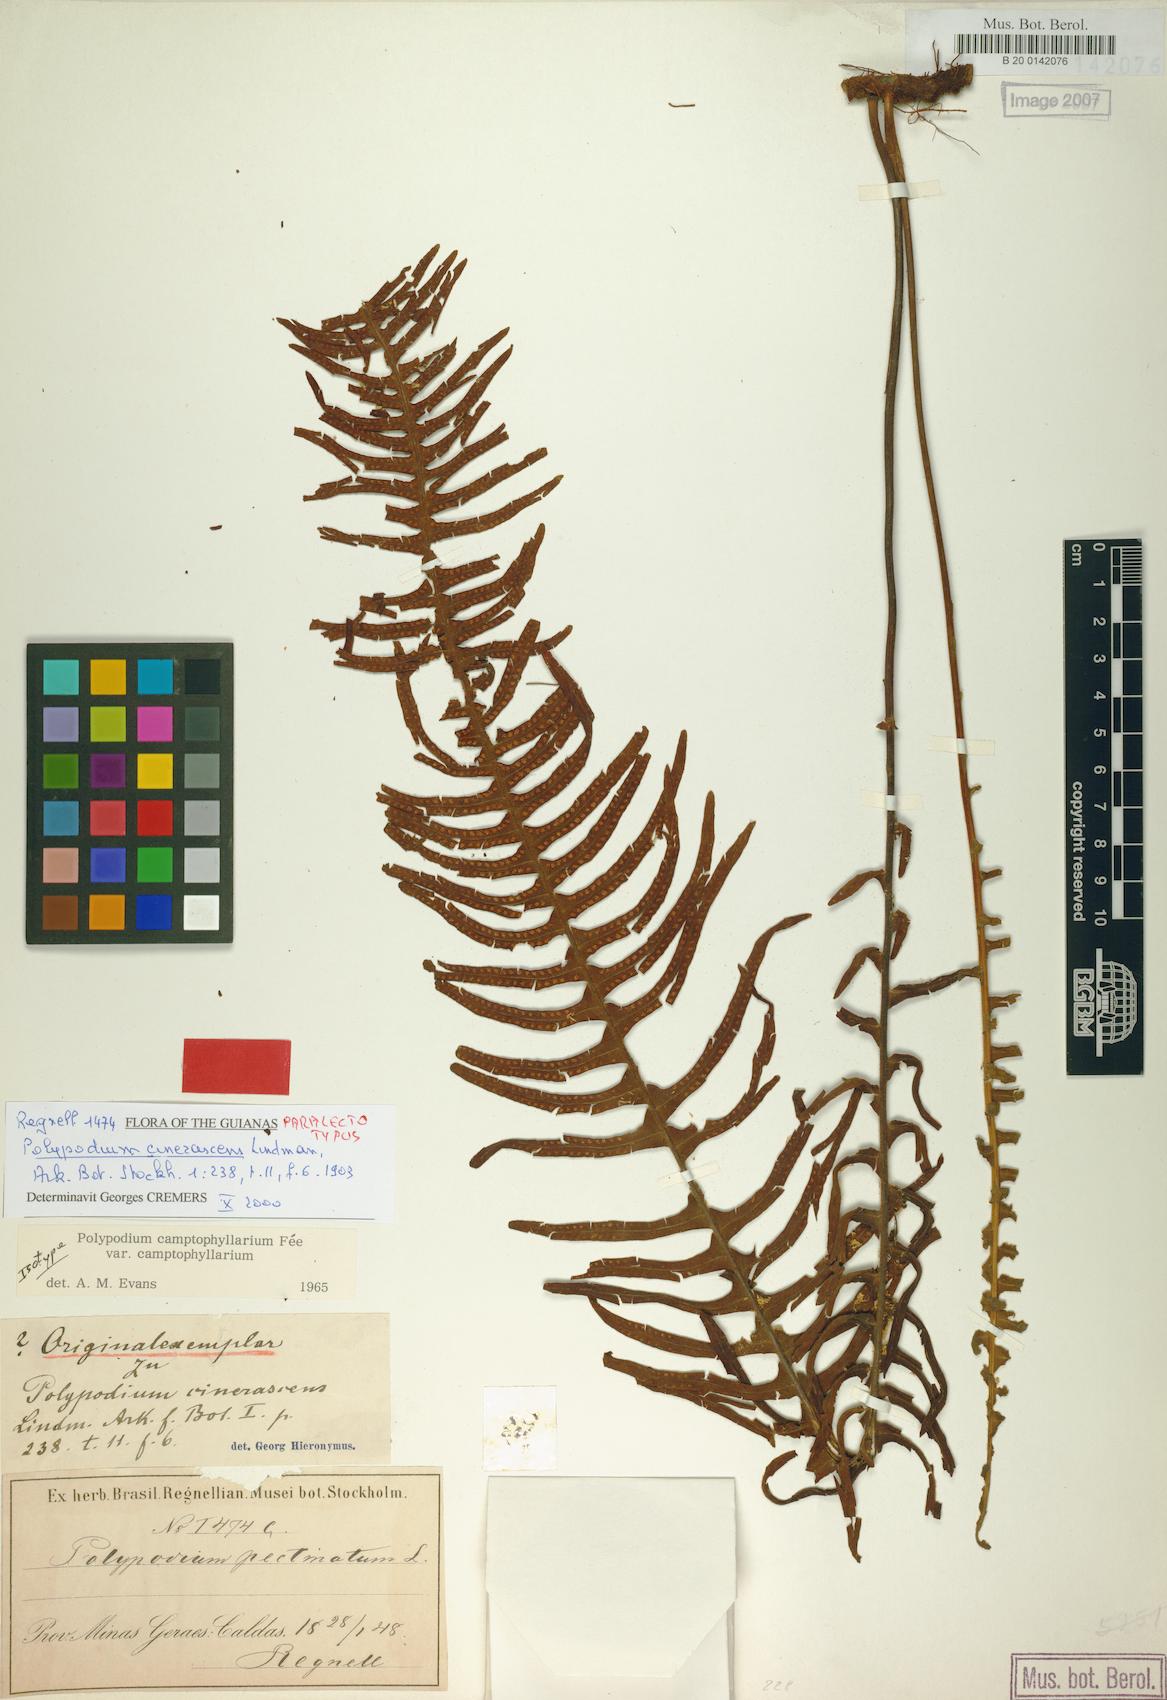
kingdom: Plantae
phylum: Tracheophyta
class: Polypodiopsida
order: Polypodiales
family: Polypodiaceae
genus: Pecluma
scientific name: Pecluma camptophyllaria
